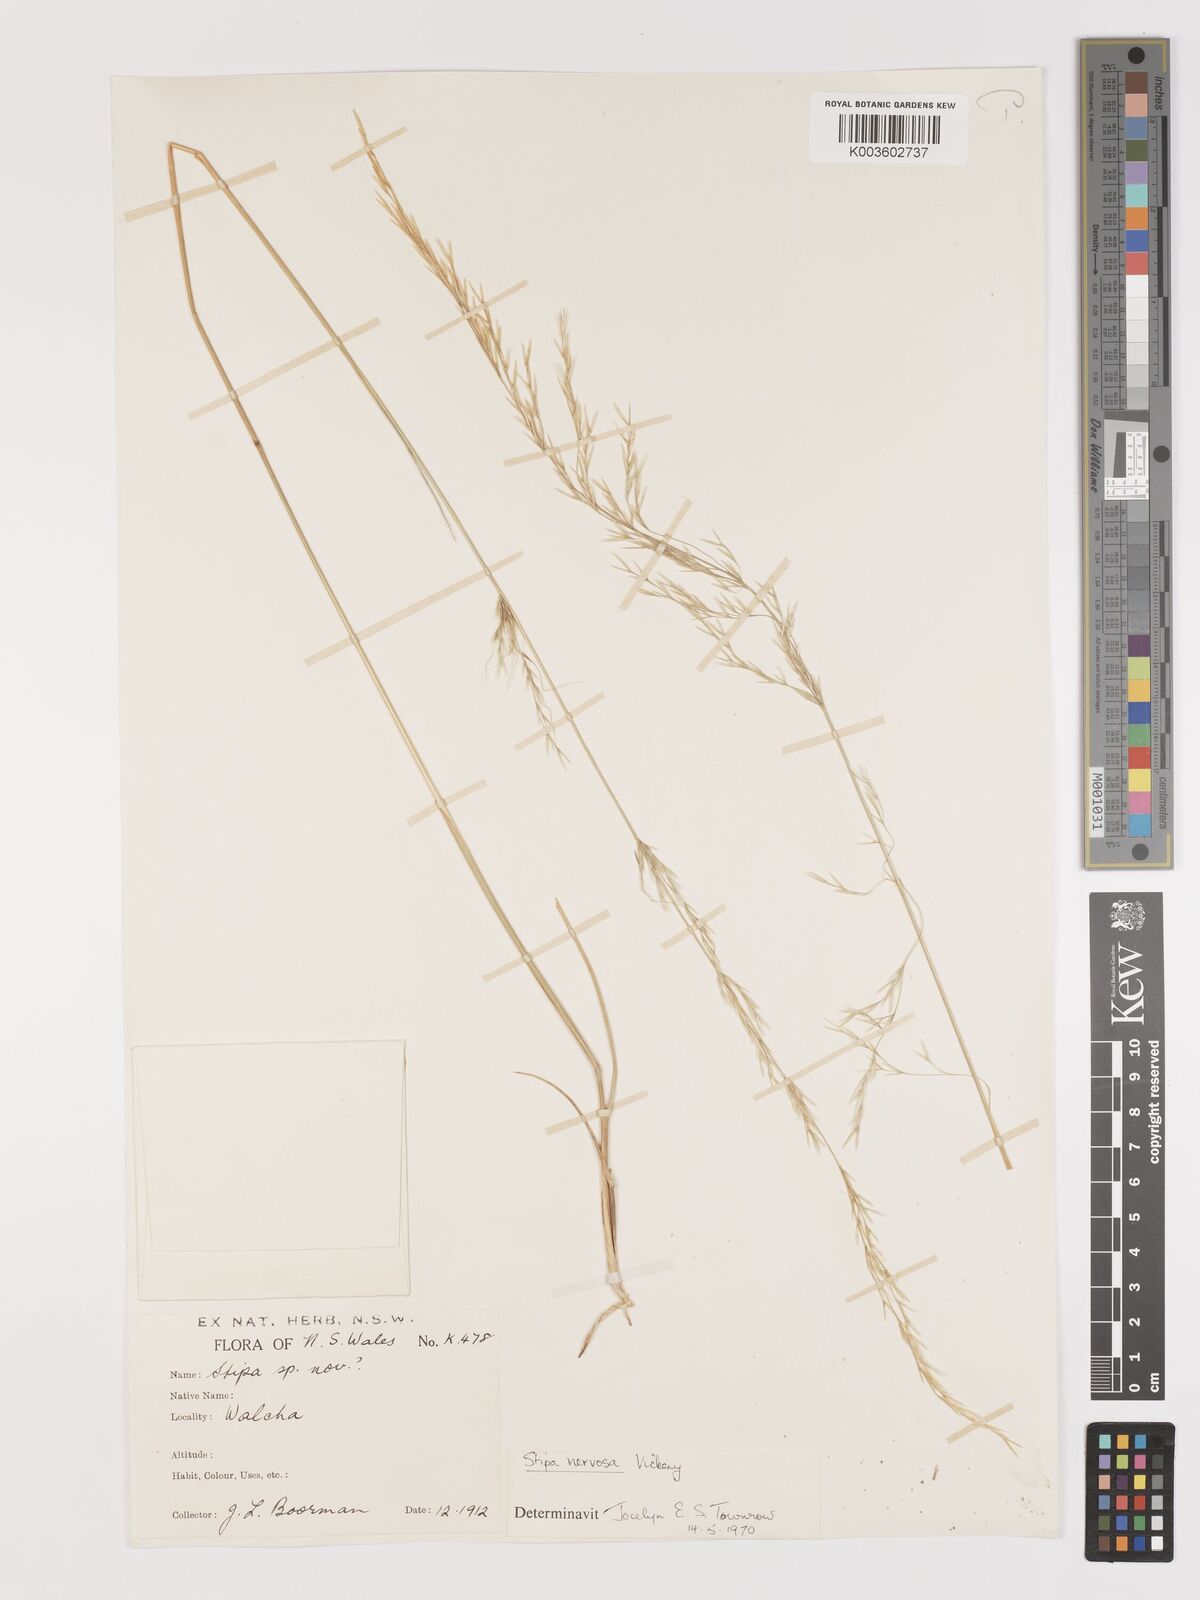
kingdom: Plantae
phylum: Tracheophyta
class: Liliopsida
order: Poales
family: Poaceae
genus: Austrostipa
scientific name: Austrostipa rudis
